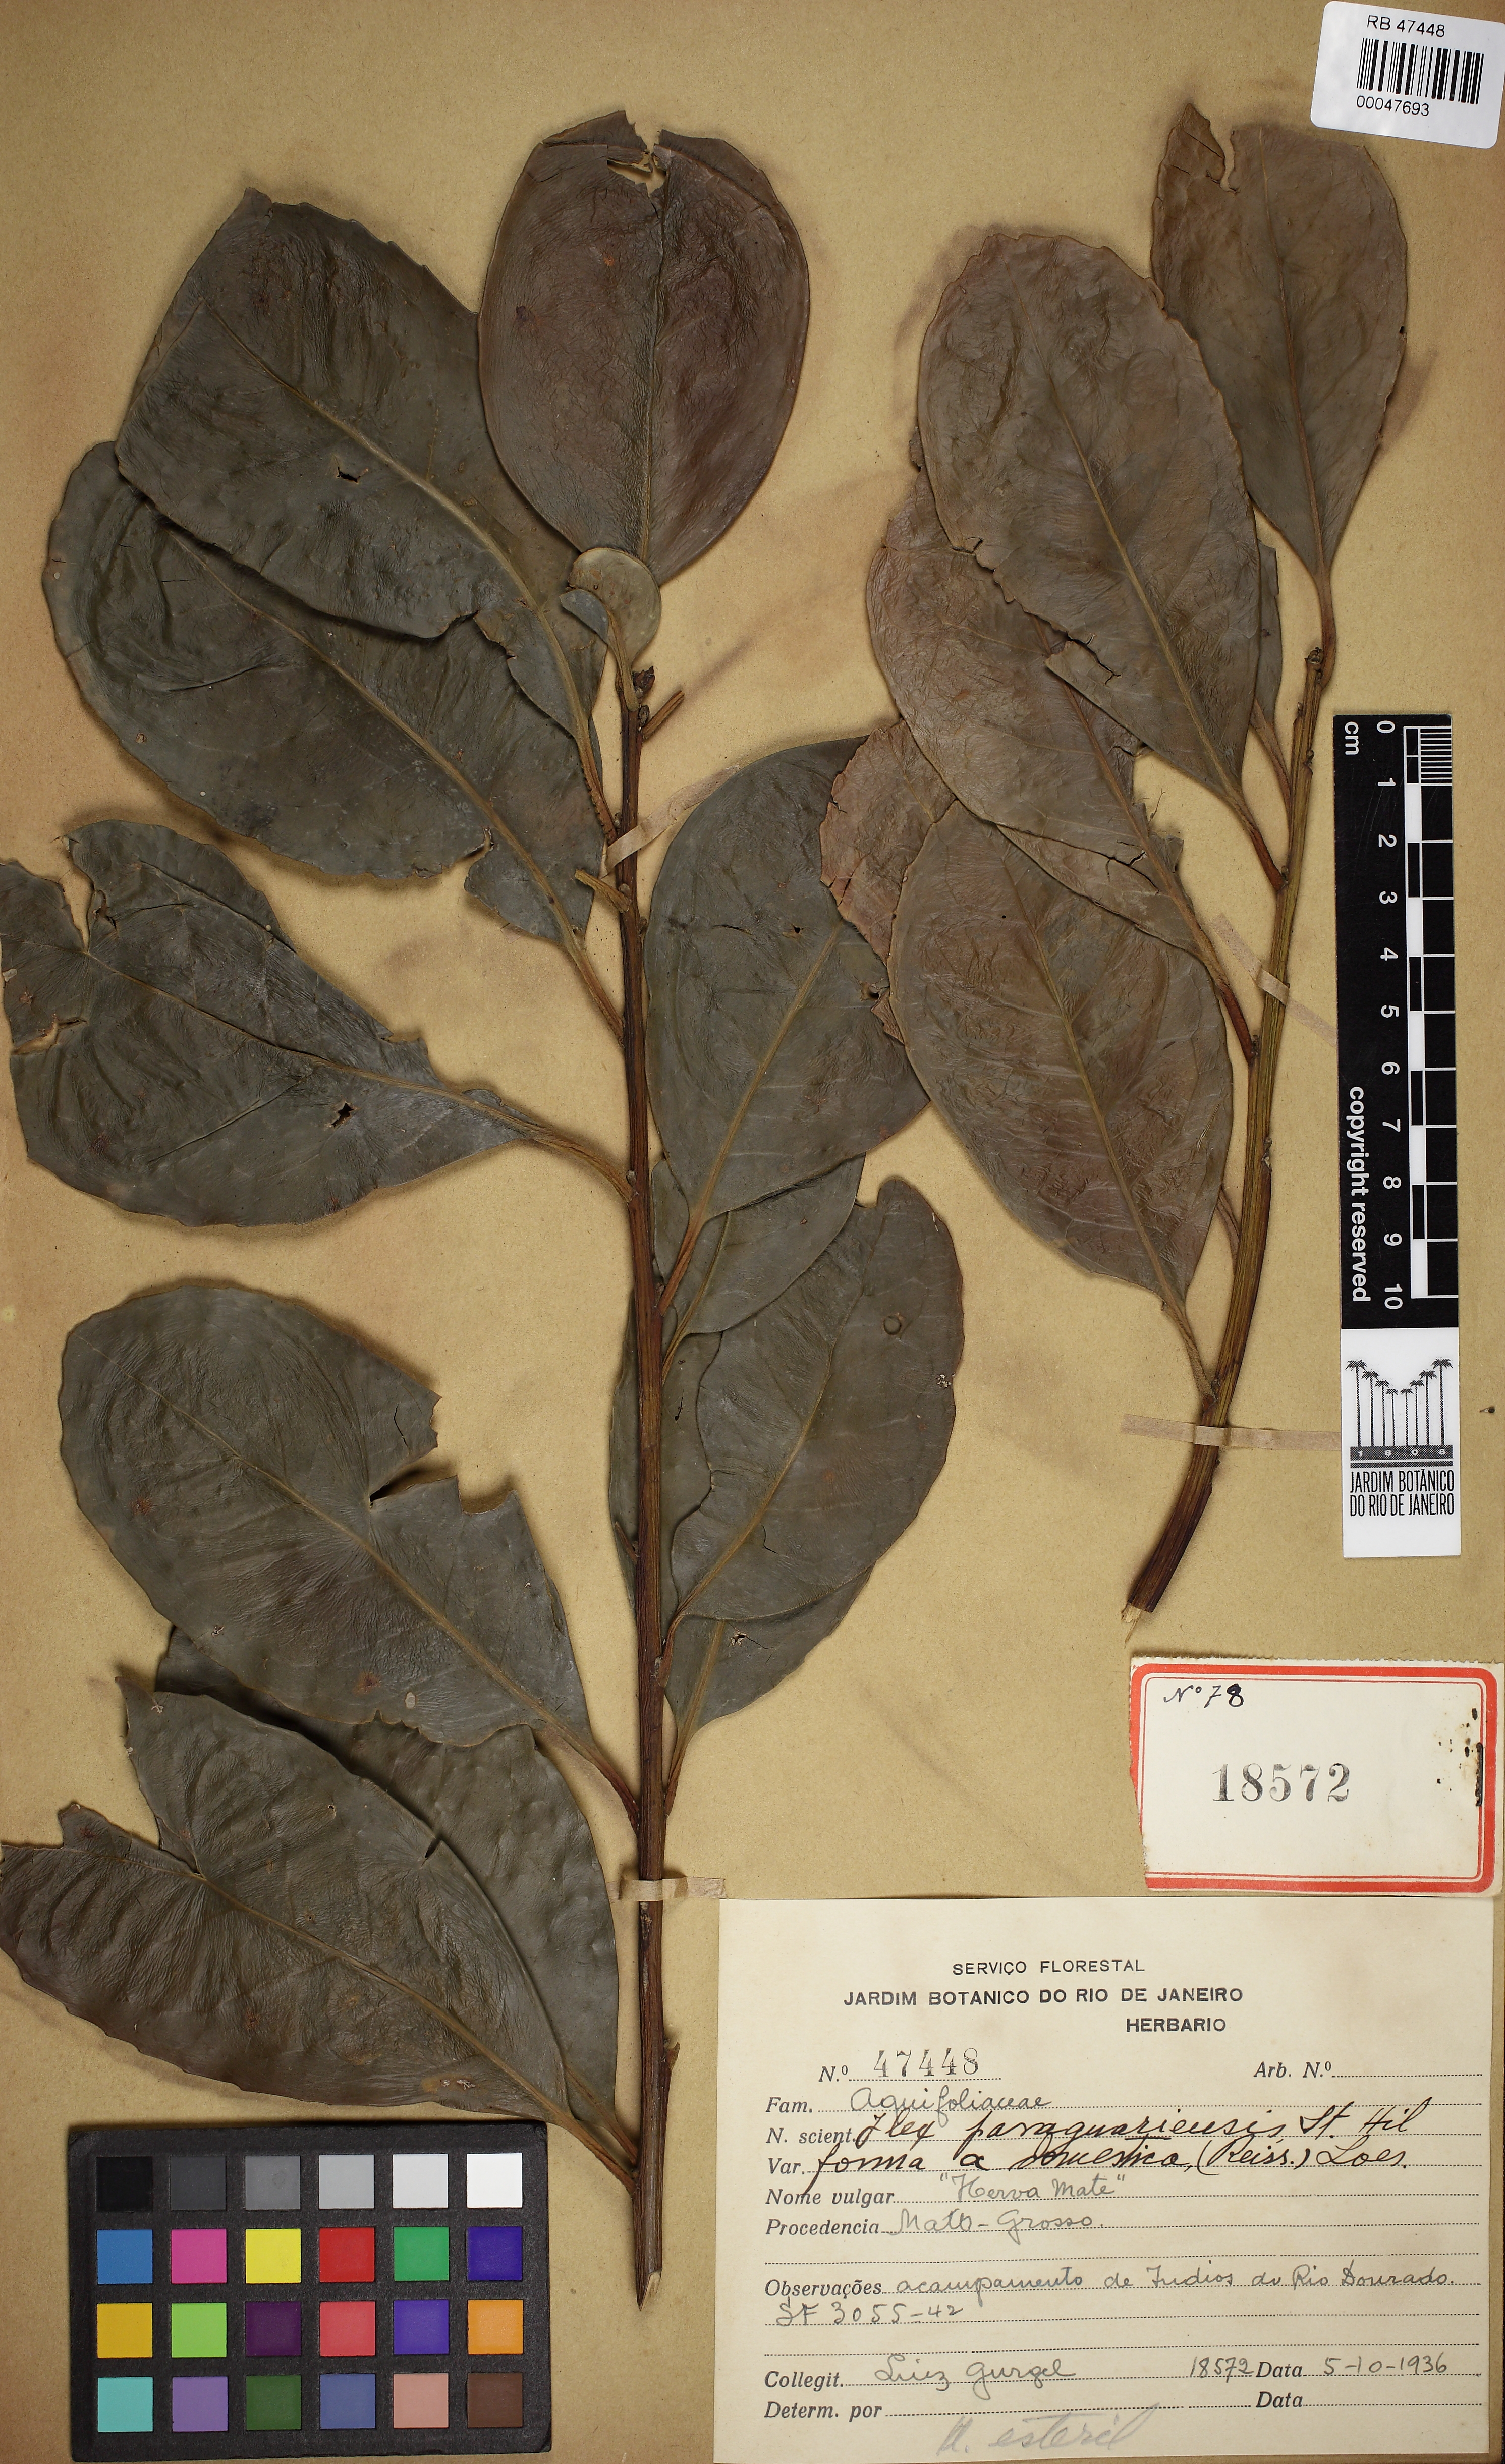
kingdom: Plantae
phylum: Tracheophyta
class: Magnoliopsida
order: Aquifoliales
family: Aquifoliaceae
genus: Ilex
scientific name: Ilex paraguariensis
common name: Paraguay tea
